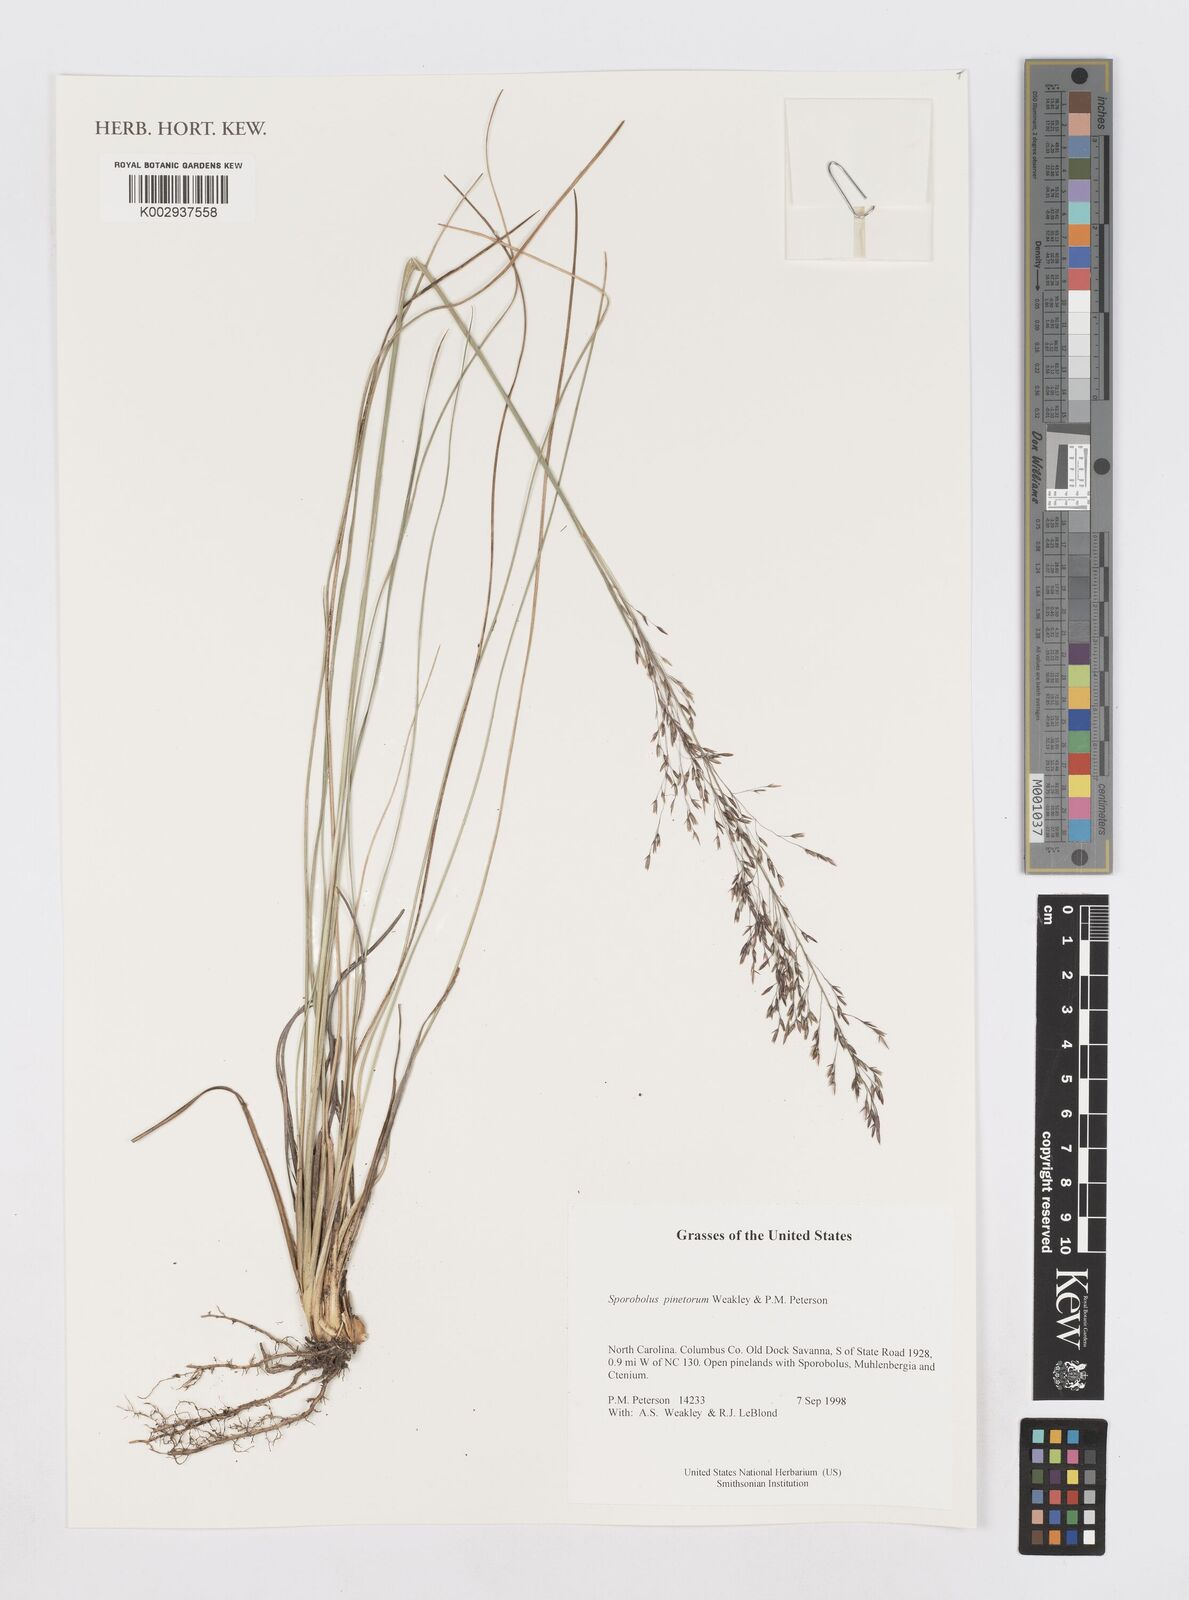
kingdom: Plantae
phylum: Tracheophyta
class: Liliopsida
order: Poales
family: Poaceae
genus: Sporobolus
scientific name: Sporobolus pinetorum
